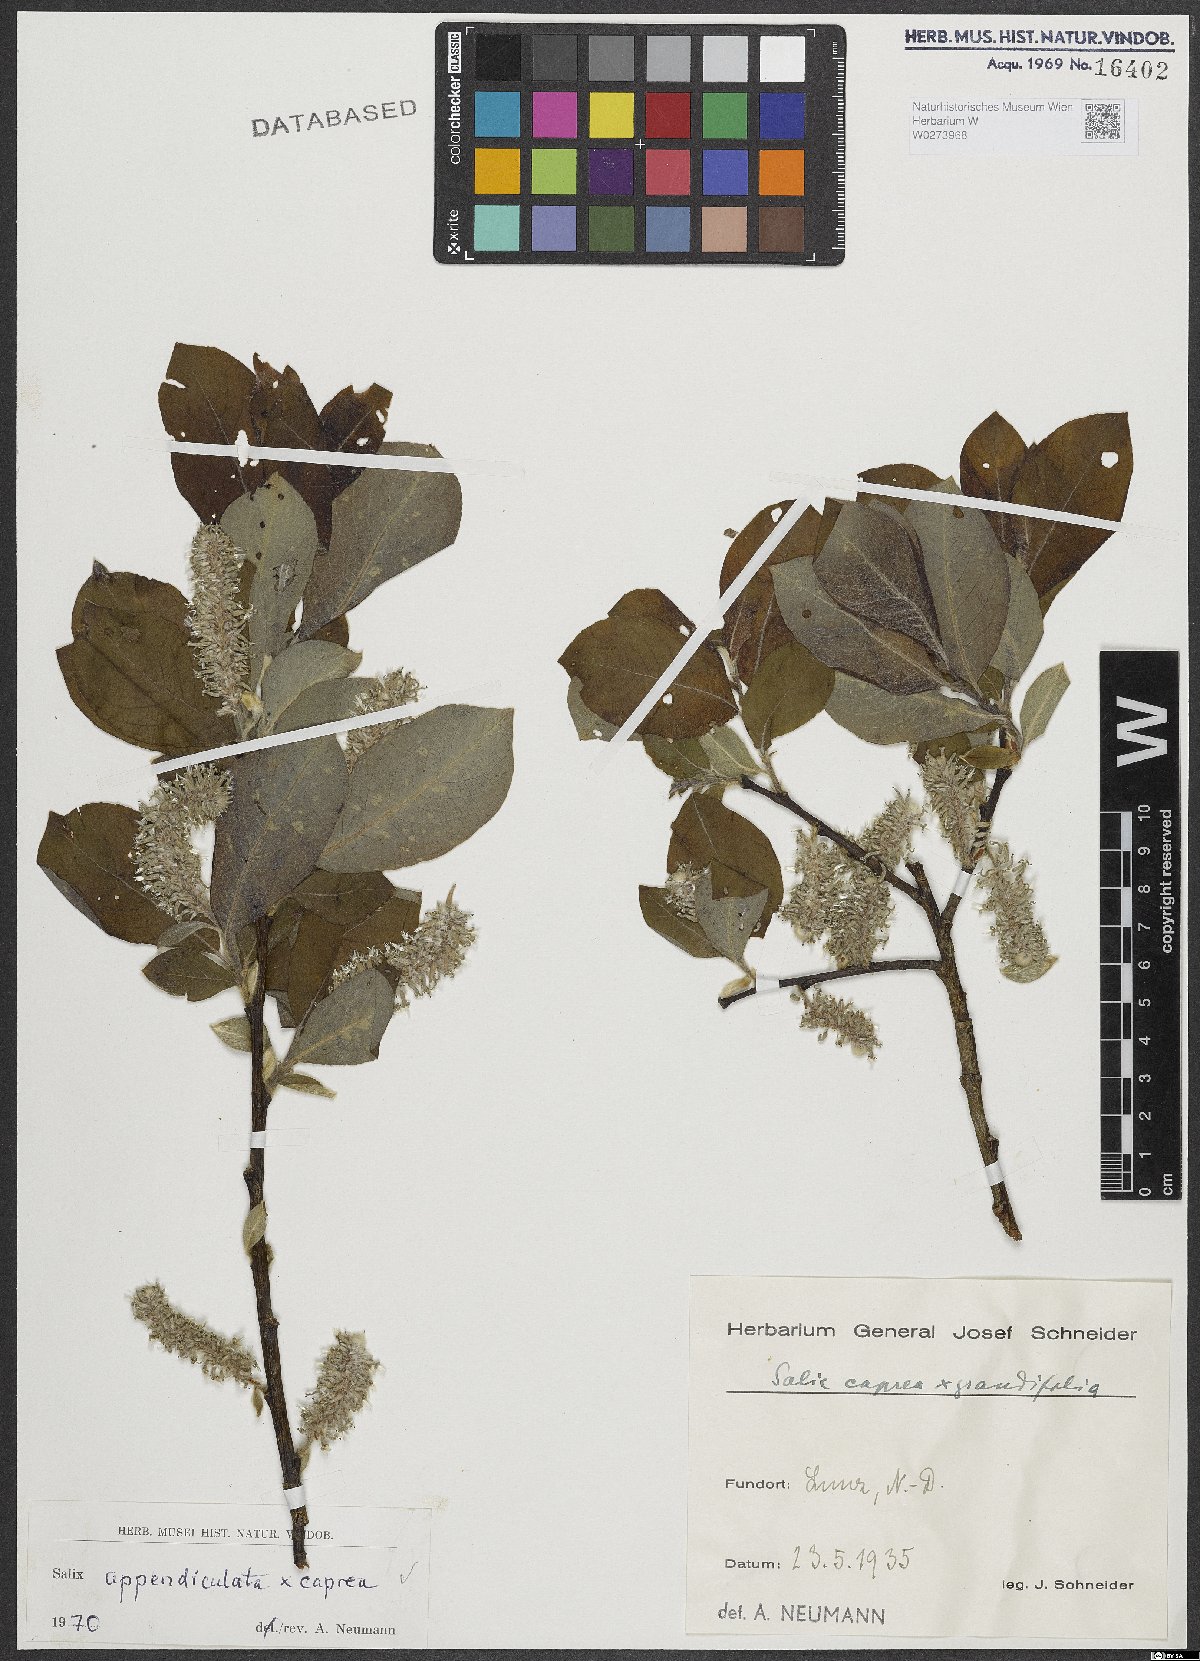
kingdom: Plantae
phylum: Tracheophyta
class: Magnoliopsida
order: Malpighiales
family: Salicaceae
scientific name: Salicaceae
